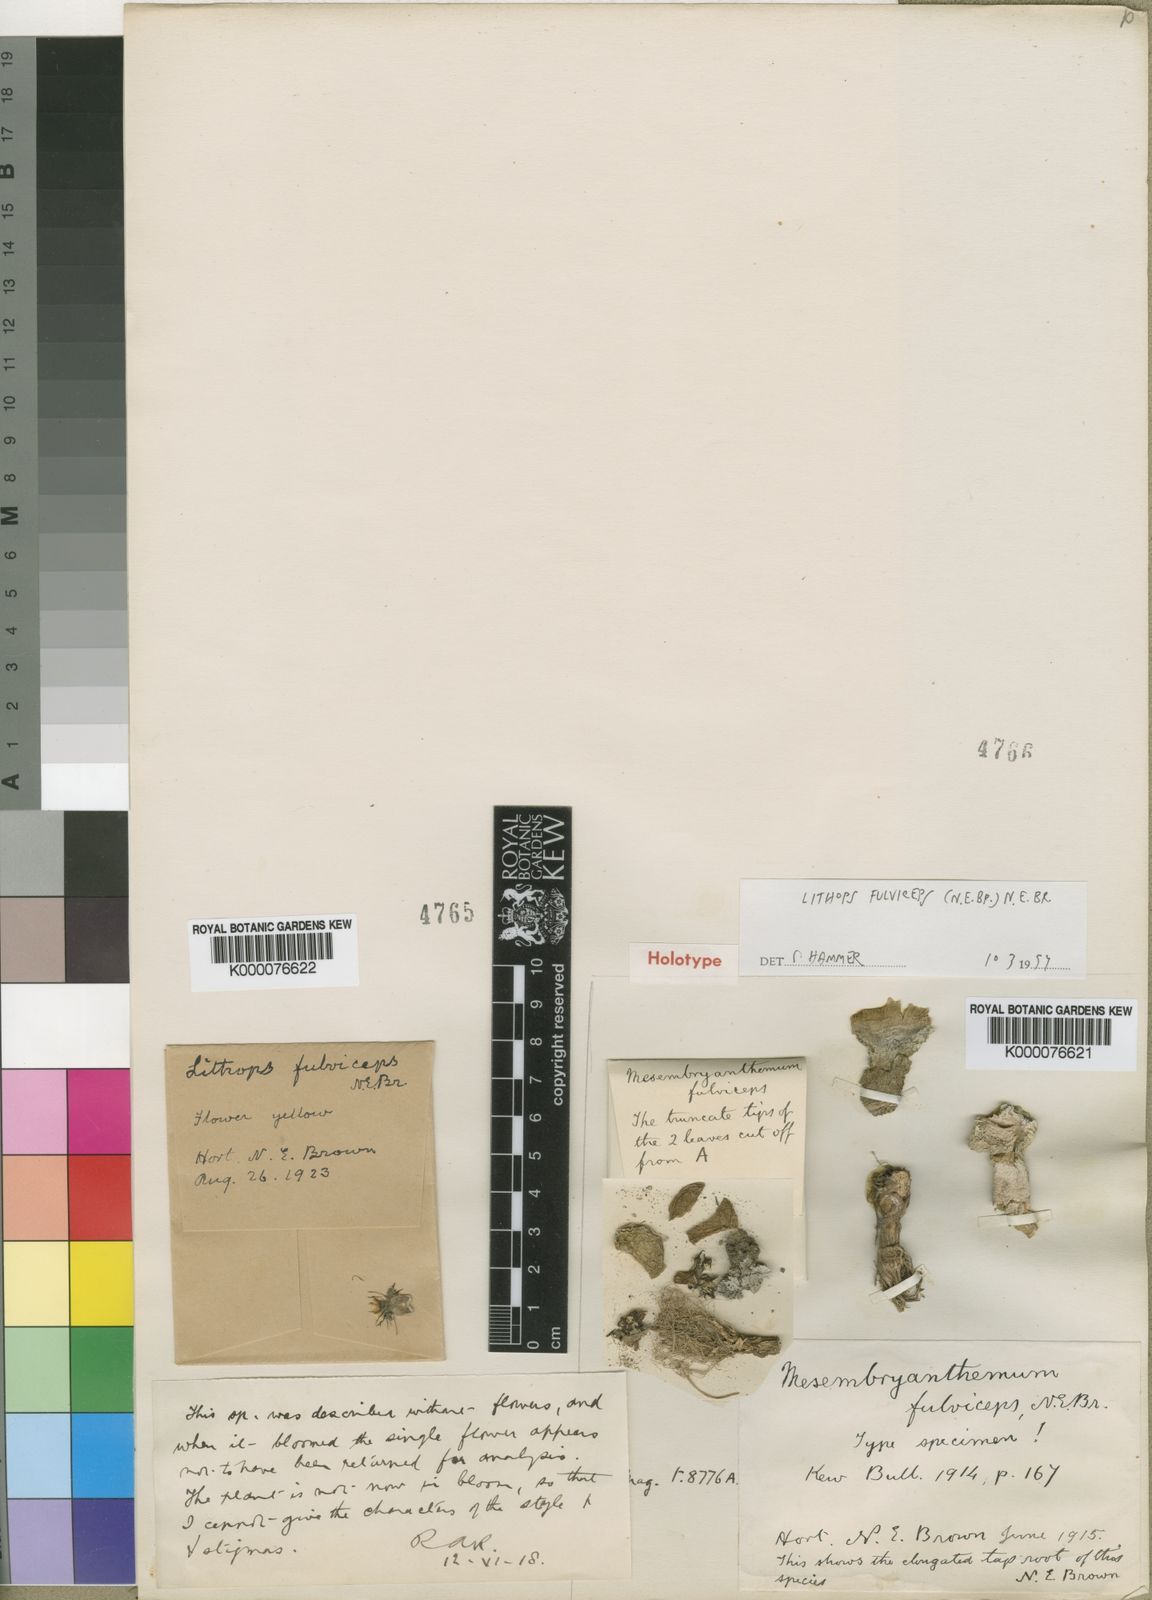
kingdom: Plantae
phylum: Tracheophyta
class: Magnoliopsida
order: Caryophyllales
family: Aizoaceae
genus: Lithops
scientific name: Lithops fulviceps
